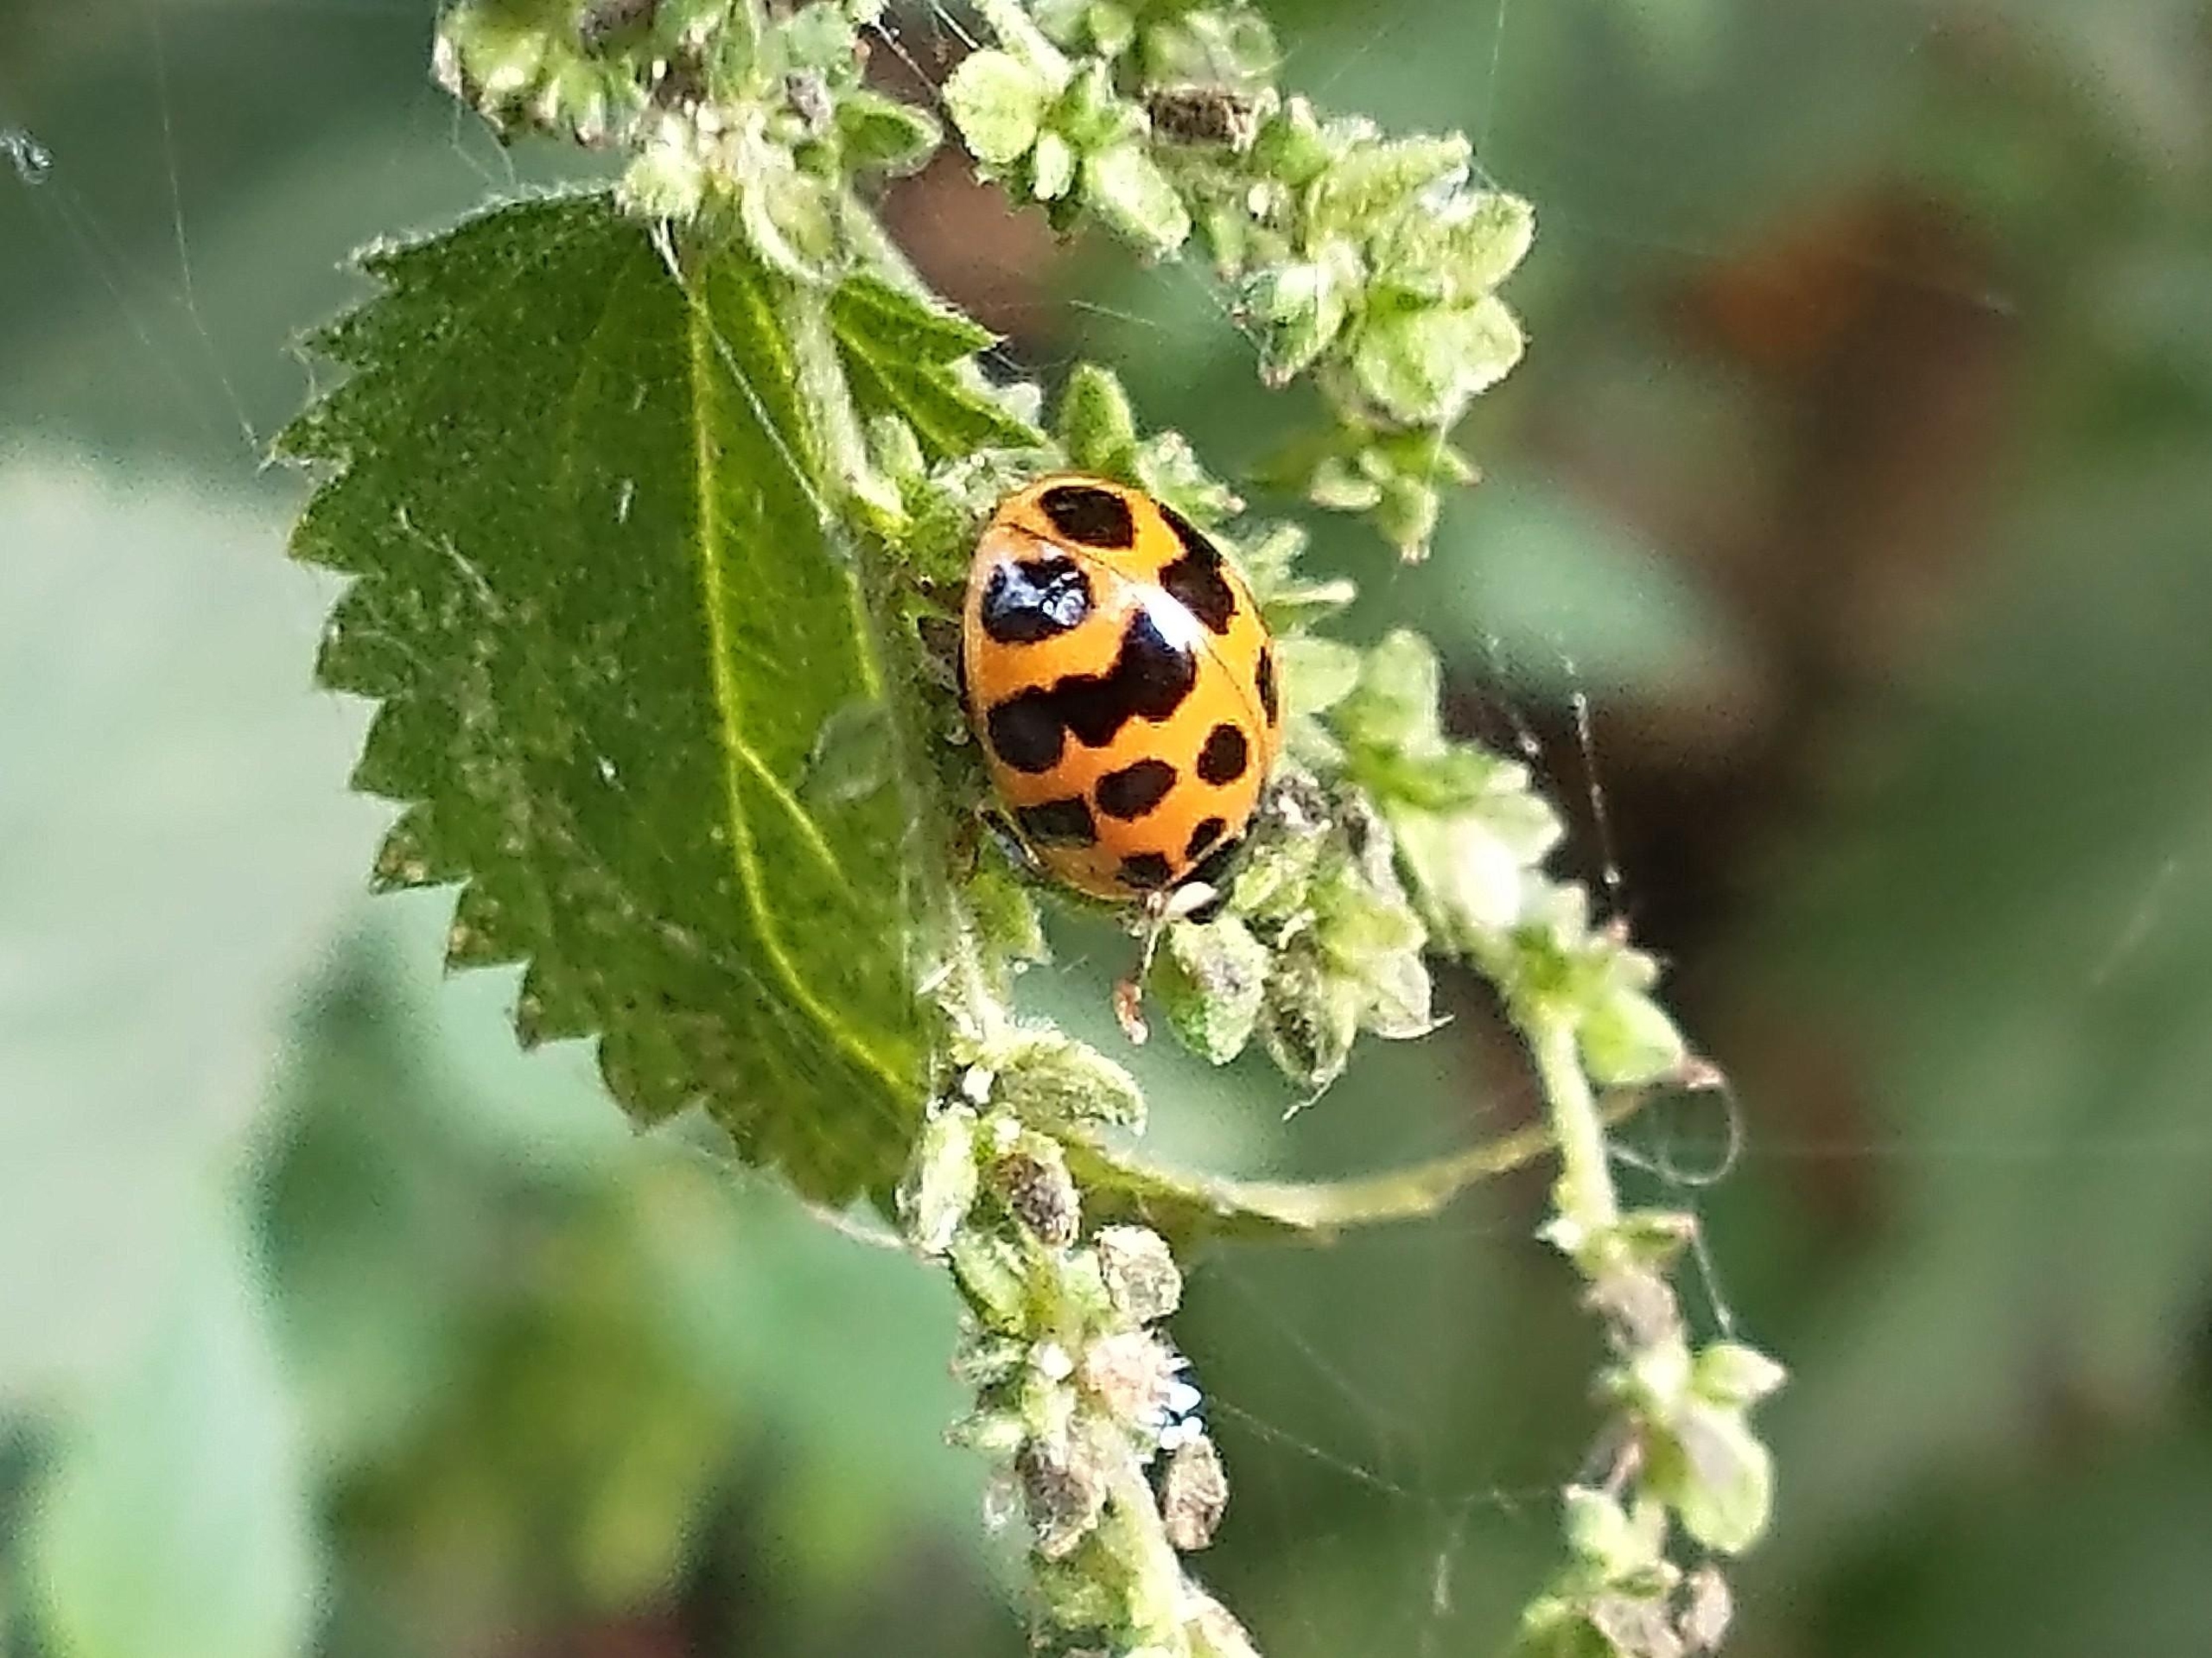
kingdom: Animalia
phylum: Arthropoda
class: Insecta
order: Coleoptera
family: Coccinellidae
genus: Harmonia
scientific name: Harmonia axyridis
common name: Harlekinmariehøne
